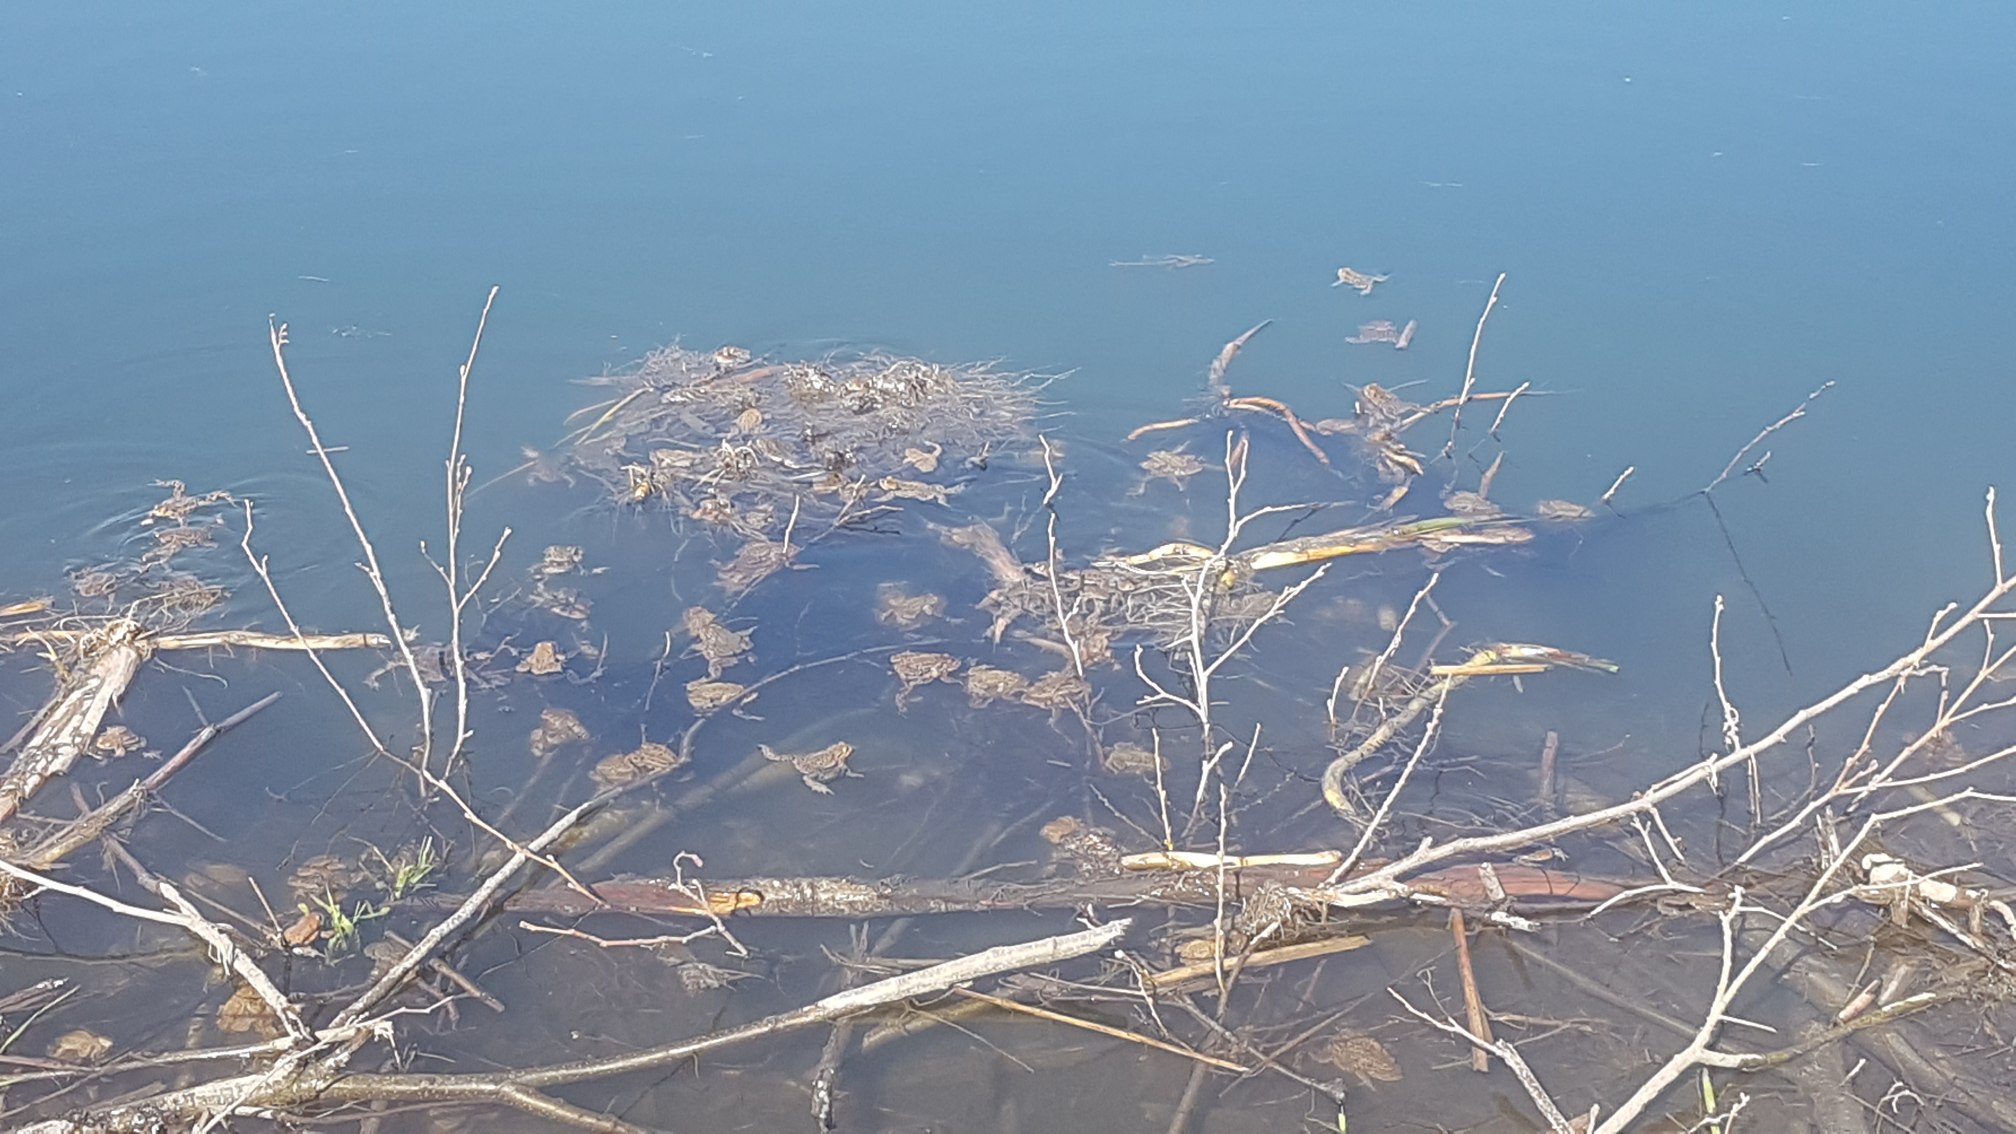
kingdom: Animalia
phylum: Chordata
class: Amphibia
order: Anura
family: Bufonidae
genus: Bufo
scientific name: Bufo bufo
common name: Skrubtudse
